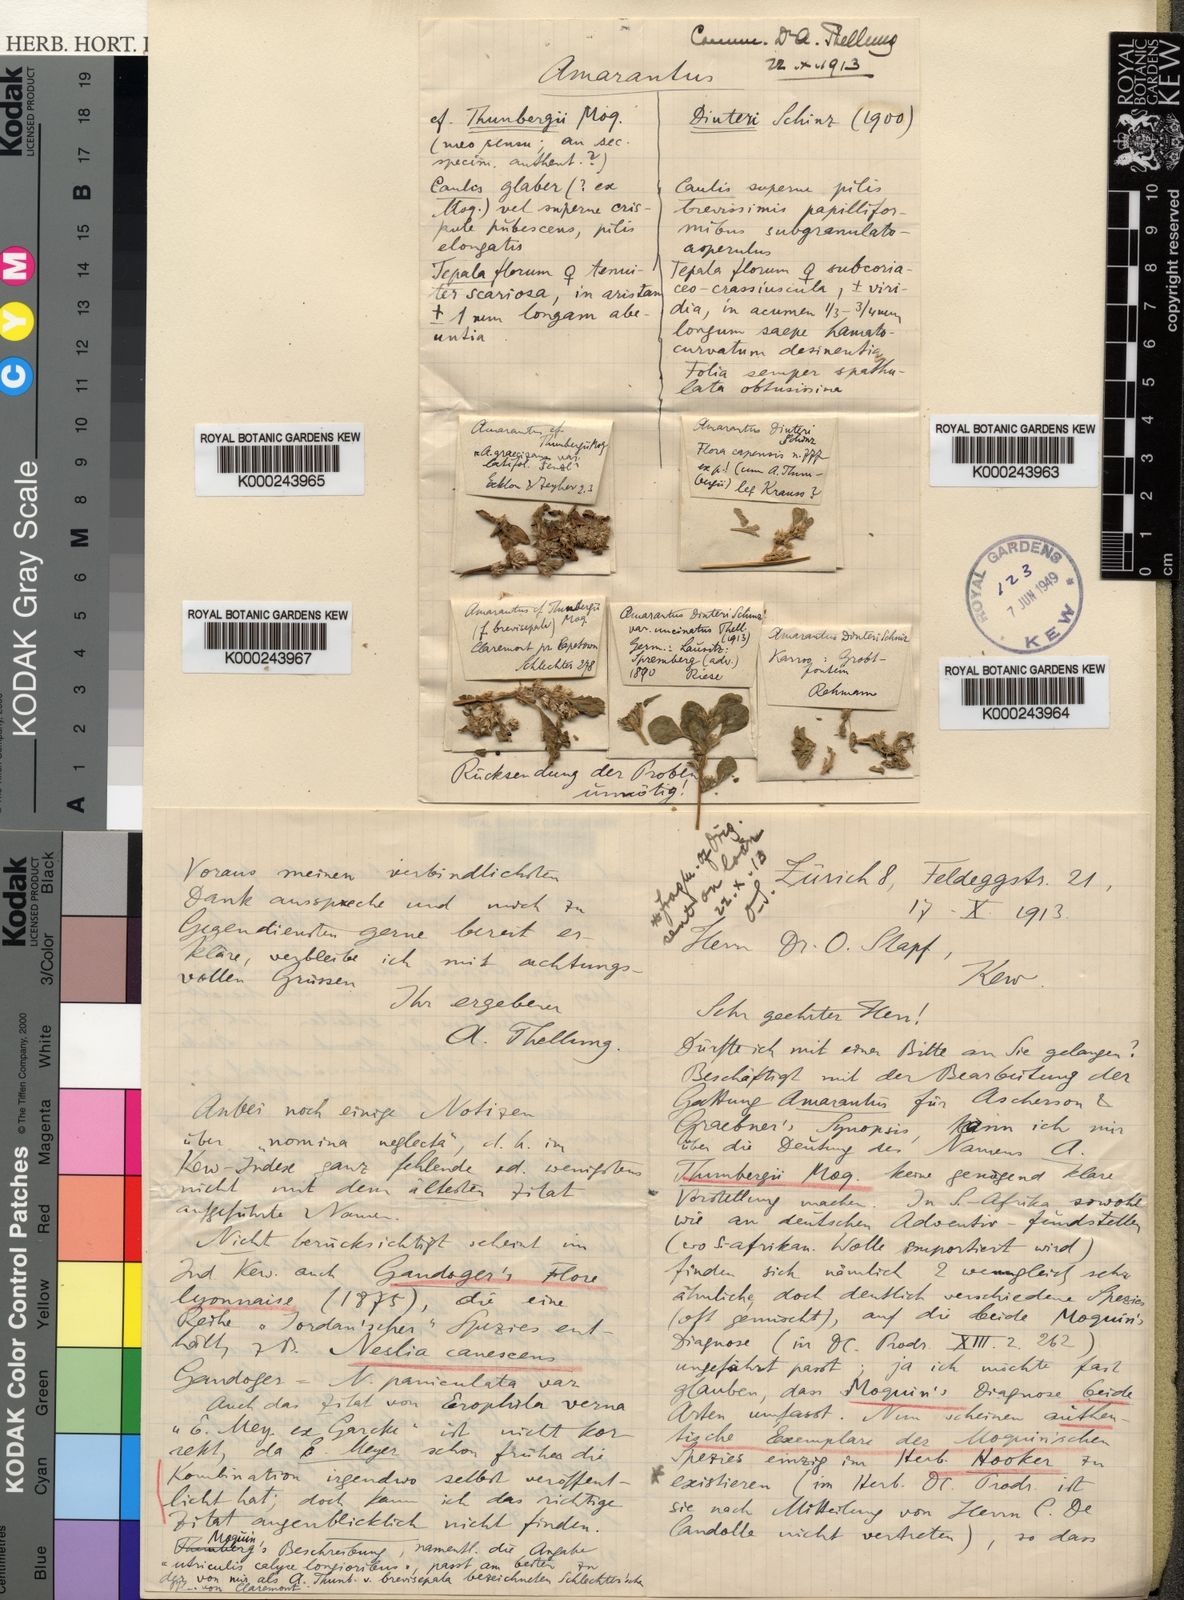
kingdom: Plantae
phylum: Tracheophyta
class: Magnoliopsida
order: Caryophyllales
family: Amaranthaceae
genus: Amaranthus
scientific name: Amaranthus dinteri
